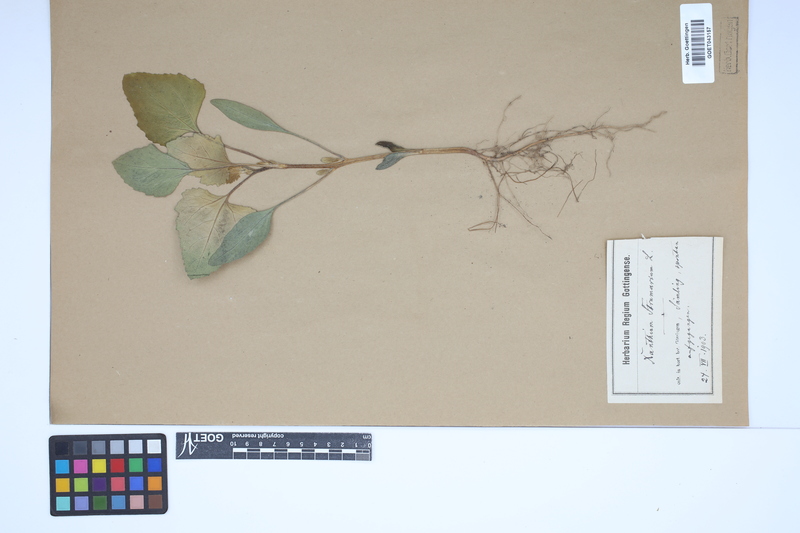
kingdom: Plantae
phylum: Tracheophyta
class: Magnoliopsida
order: Asterales
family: Asteraceae
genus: Xanthium
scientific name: Xanthium strumarium
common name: Rough cocklebur
